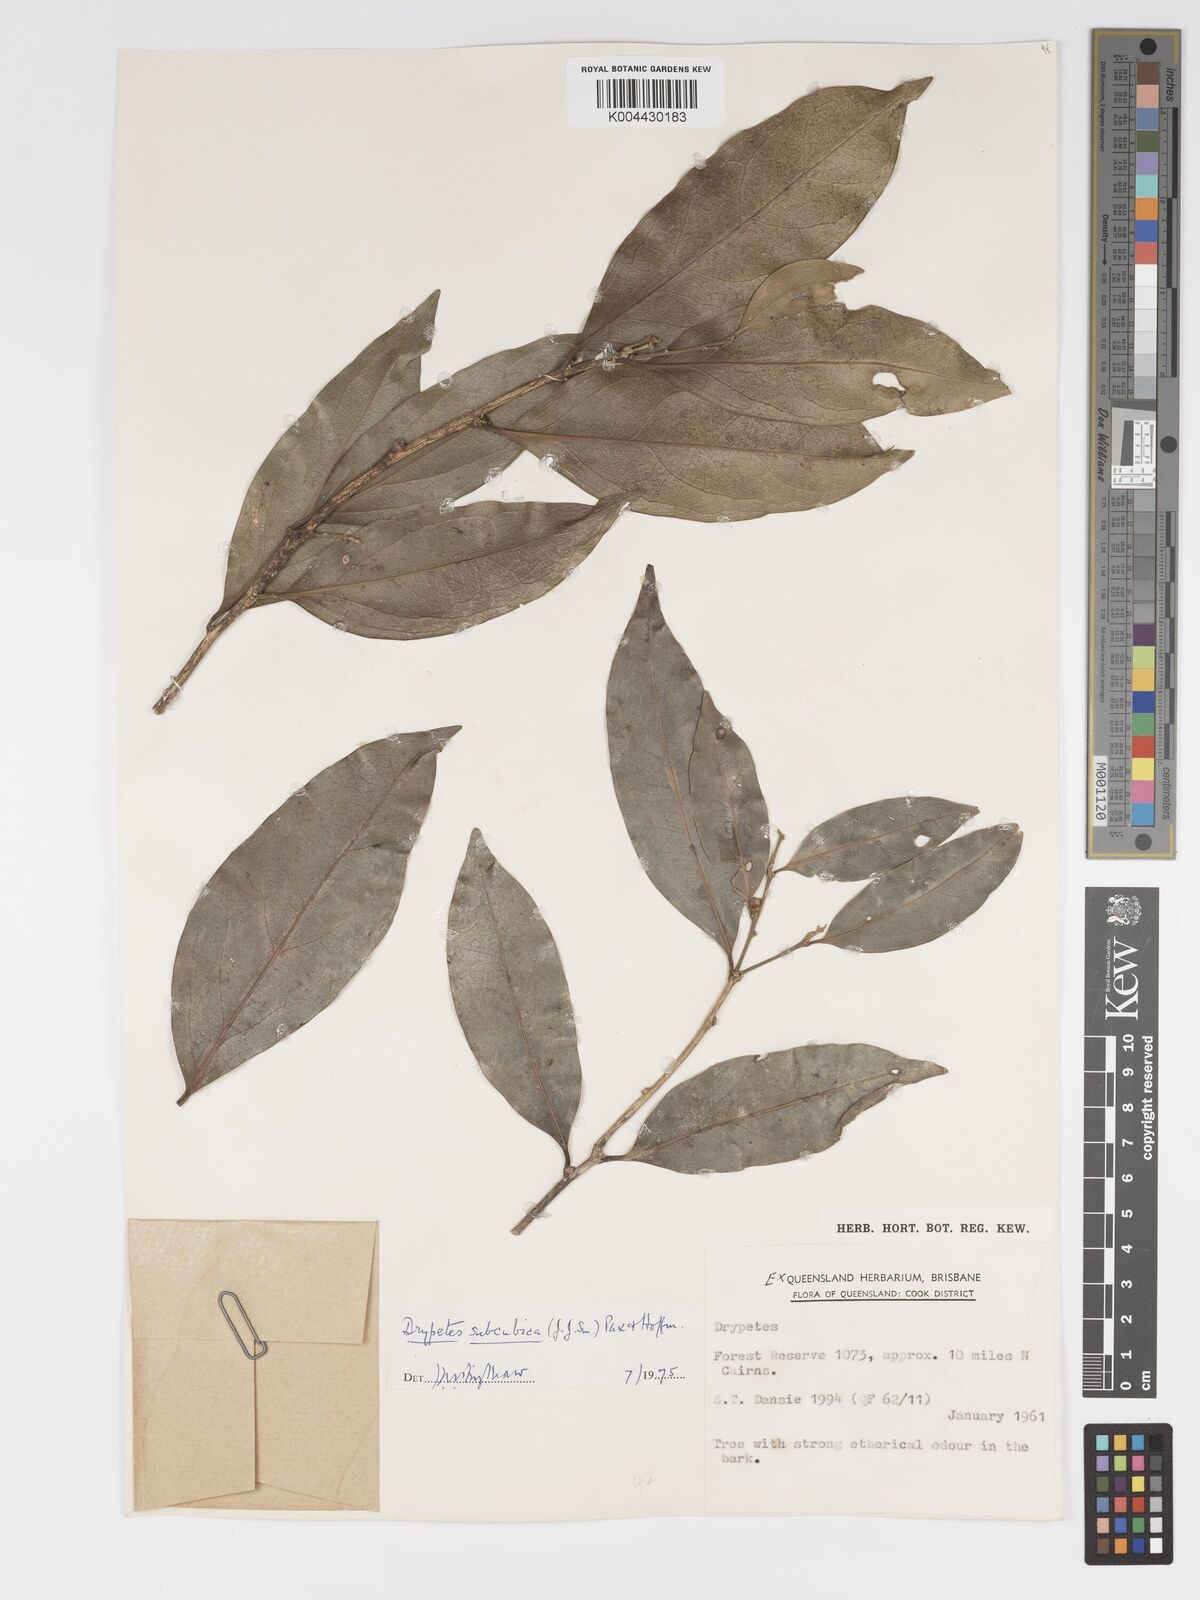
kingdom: Plantae
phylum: Tracheophyta
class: Magnoliopsida
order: Malpighiales
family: Putranjivaceae
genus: Drypetes
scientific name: Drypetes subcubica
